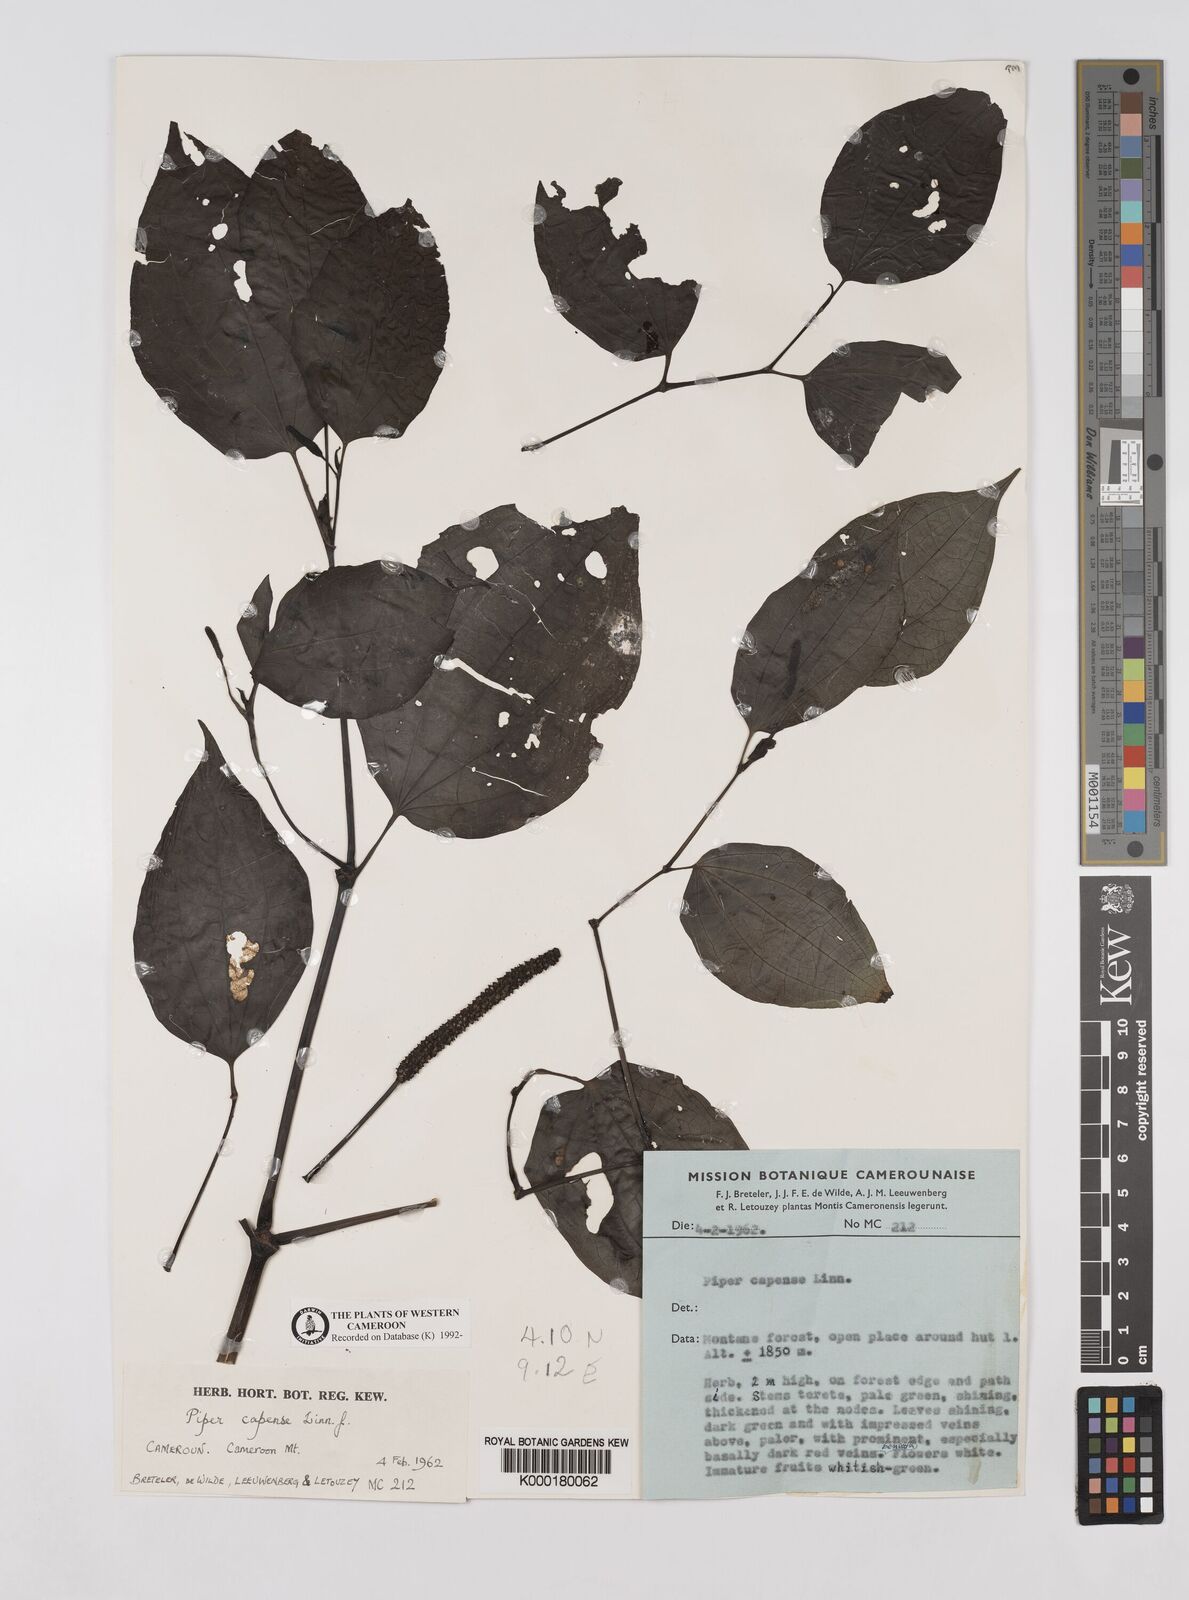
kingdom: Plantae
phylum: Tracheophyta
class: Magnoliopsida
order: Piperales
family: Piperaceae
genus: Piper
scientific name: Piper capense
